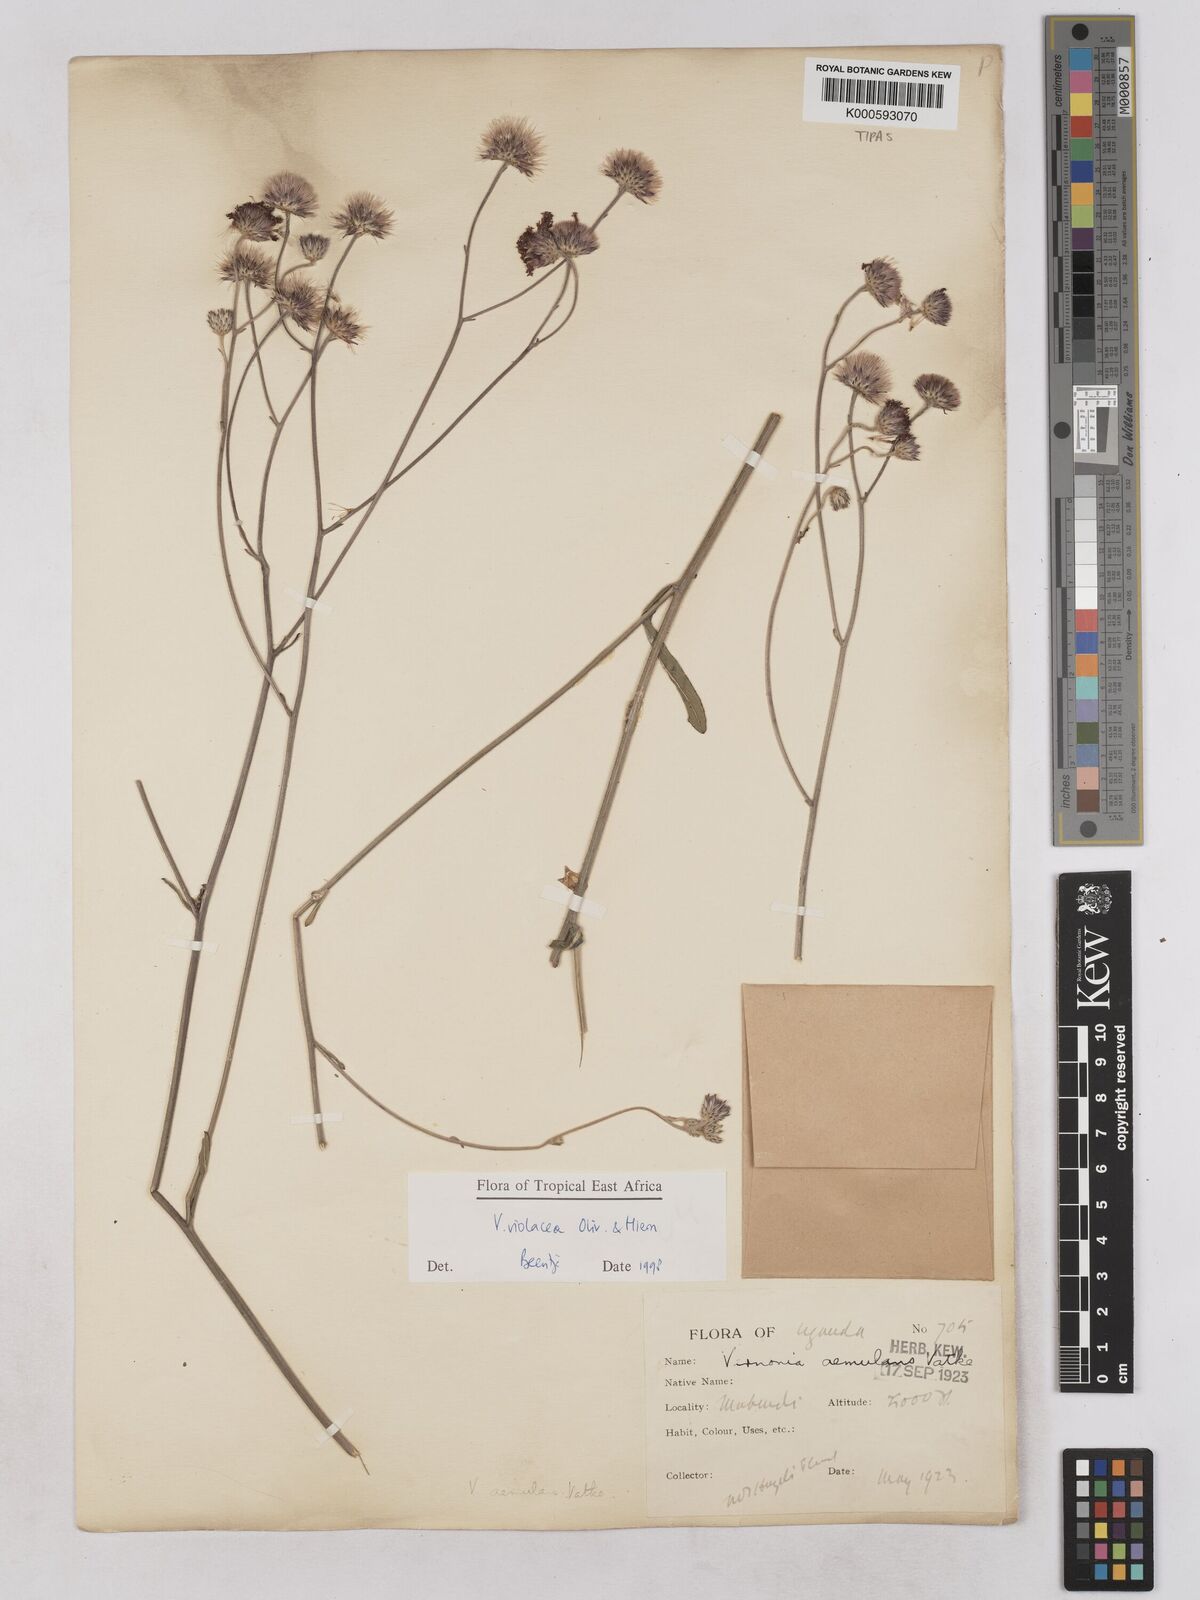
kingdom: Plantae
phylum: Tracheophyta
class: Magnoliopsida
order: Asterales
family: Asteraceae
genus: Vernonia
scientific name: Vernonia violacea
